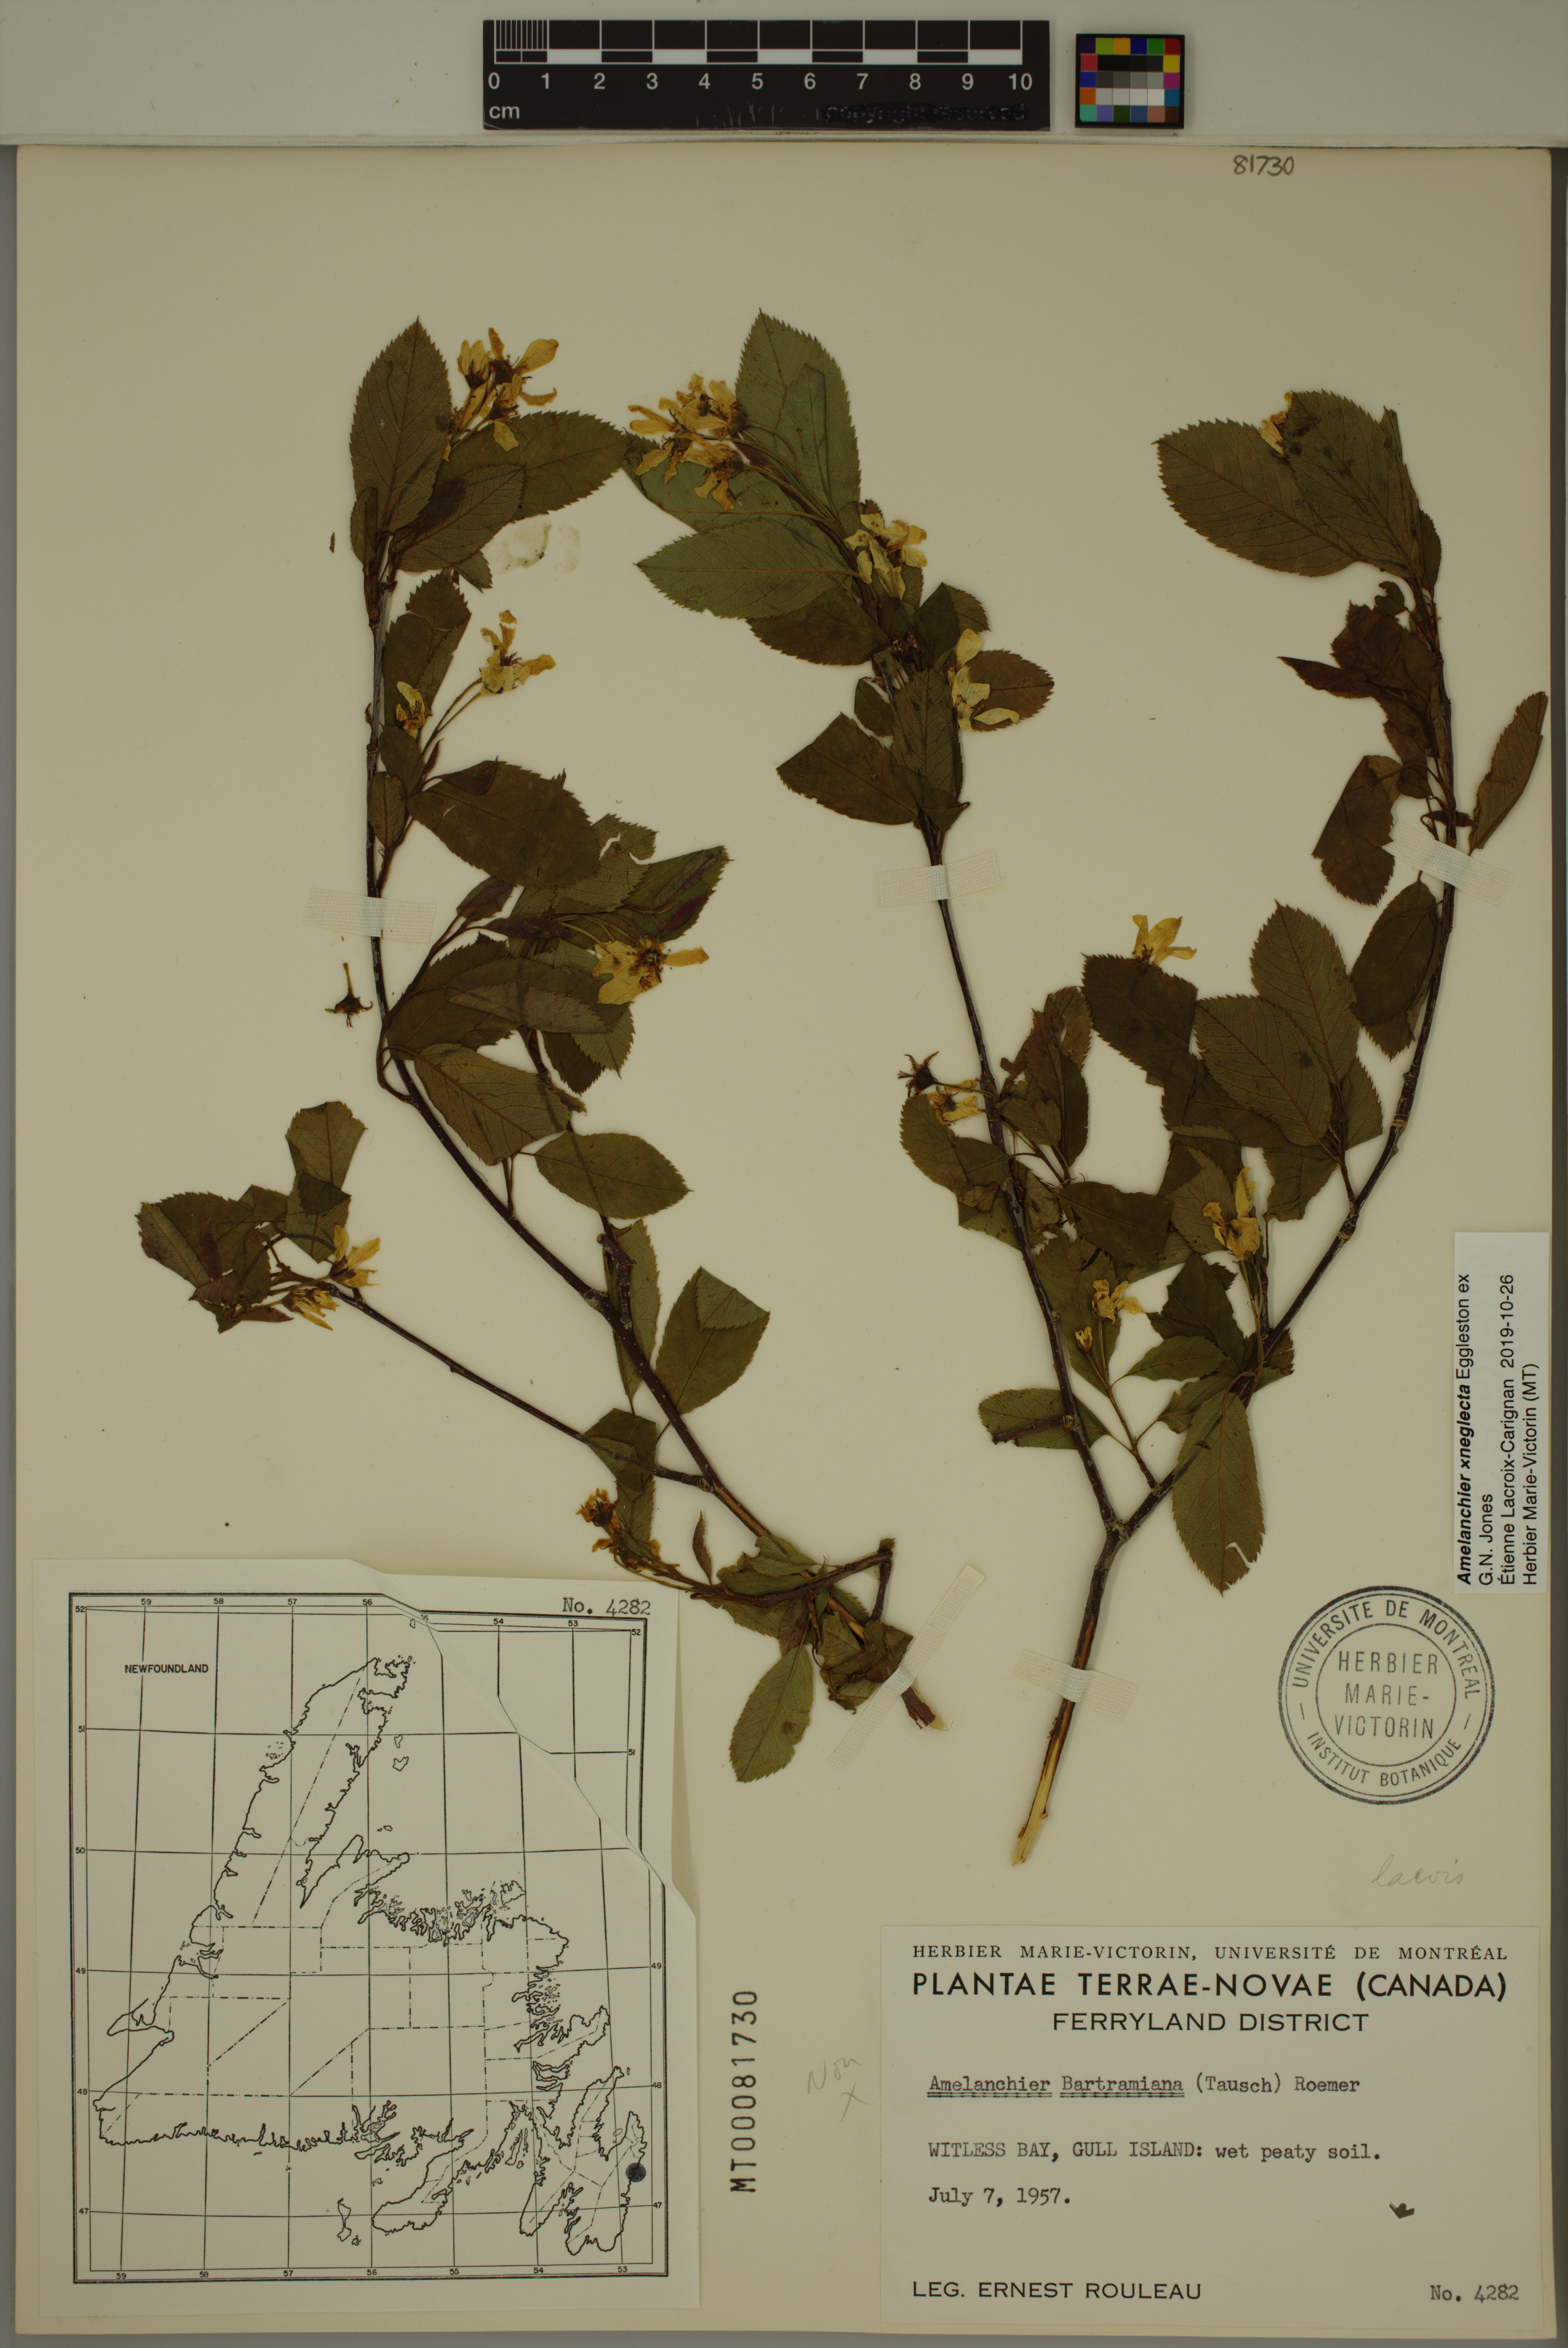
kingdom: Plantae
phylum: Tracheophyta
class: Magnoliopsida
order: Rosales
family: Rosaceae
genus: Amelanchier
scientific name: Amelanchier neglecta
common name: Overlooked serviceberry
